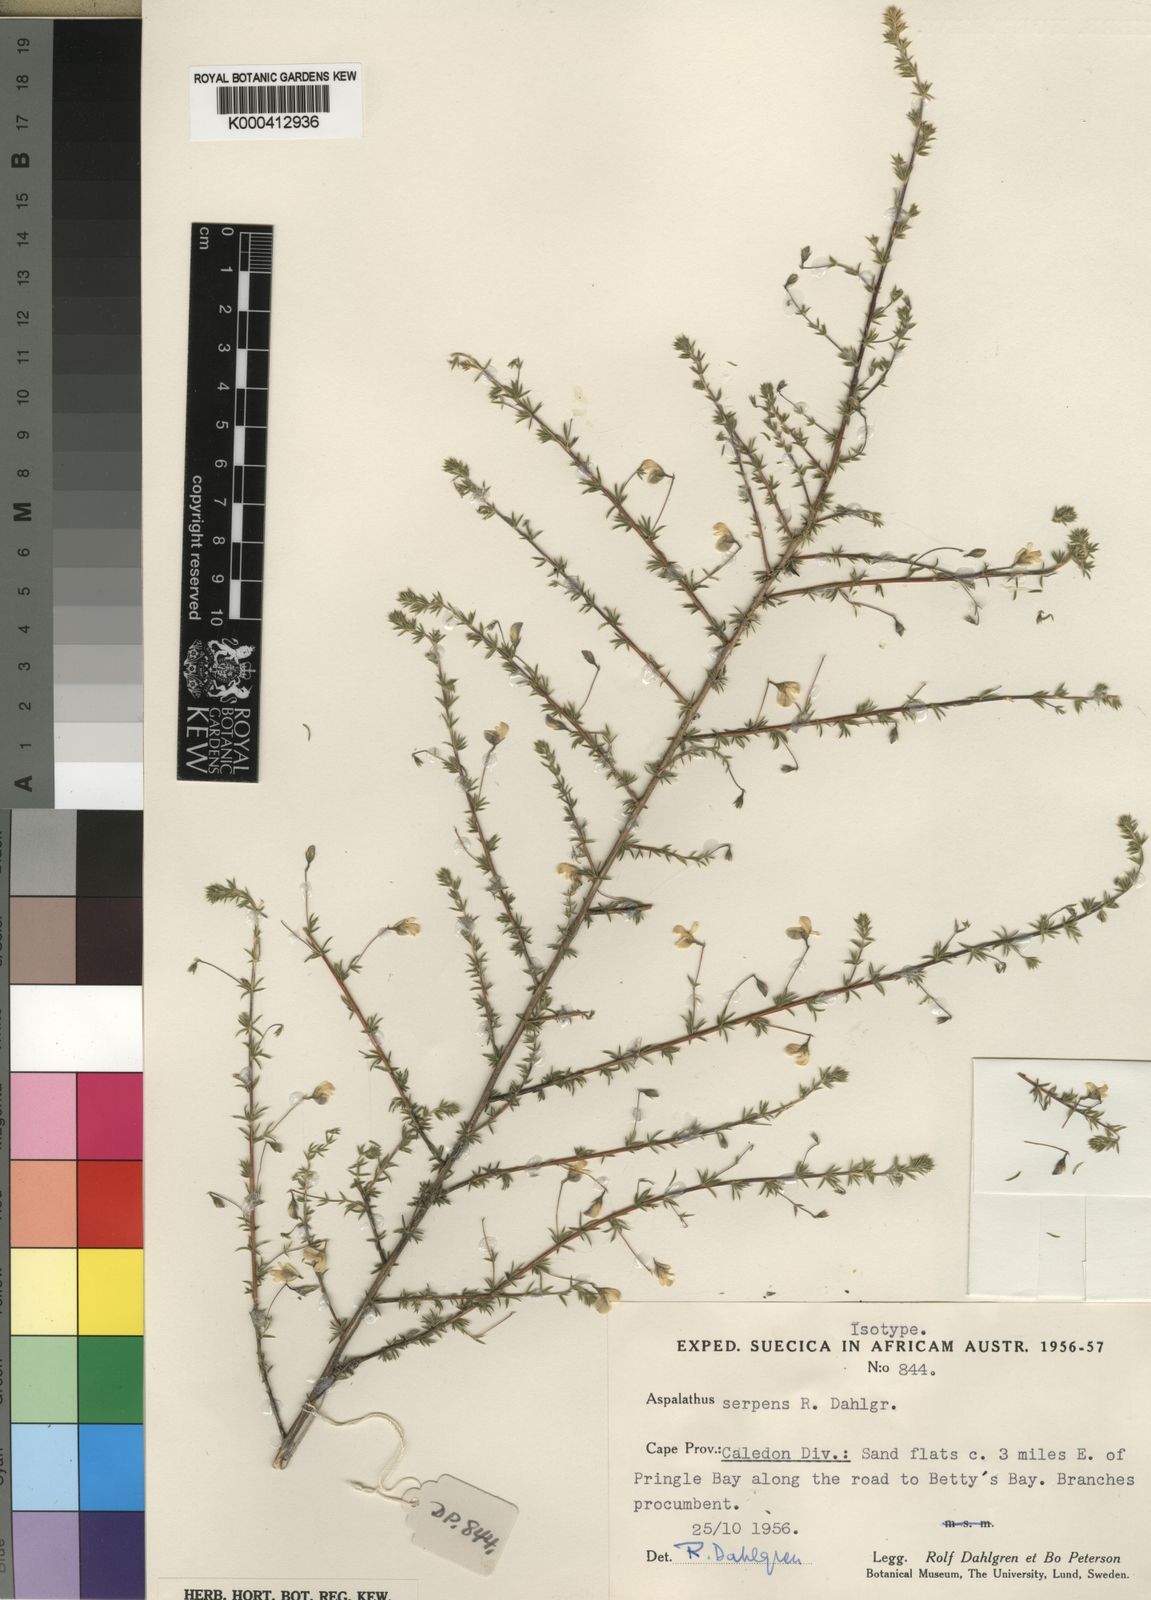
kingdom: Plantae
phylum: Tracheophyta
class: Magnoliopsida
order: Fabales
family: Fabaceae
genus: Aspalathus
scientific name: Aspalathus serpens
